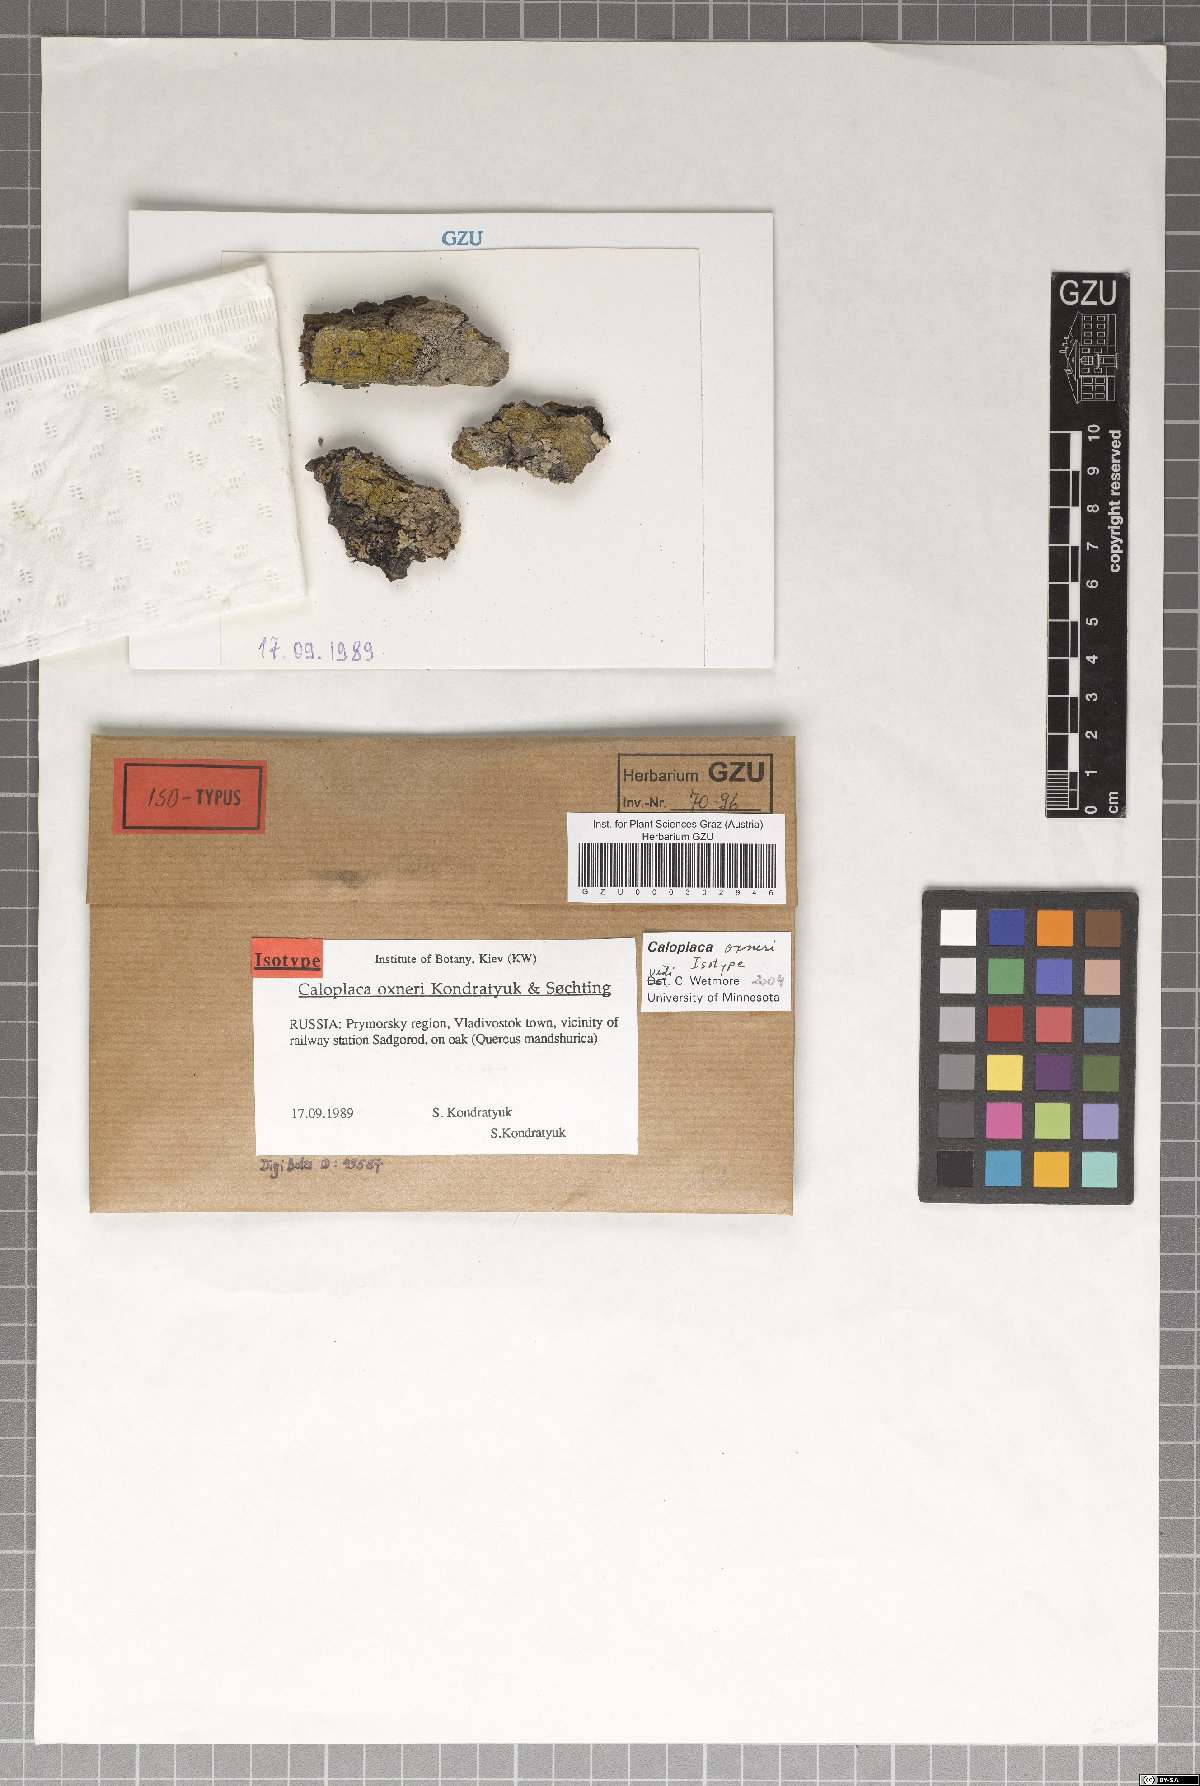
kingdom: Fungi
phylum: Ascomycota
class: Lecanoromycetes
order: Teloschistales
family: Teloschistaceae
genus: Oxneriopsis
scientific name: Oxneriopsis oxneri
